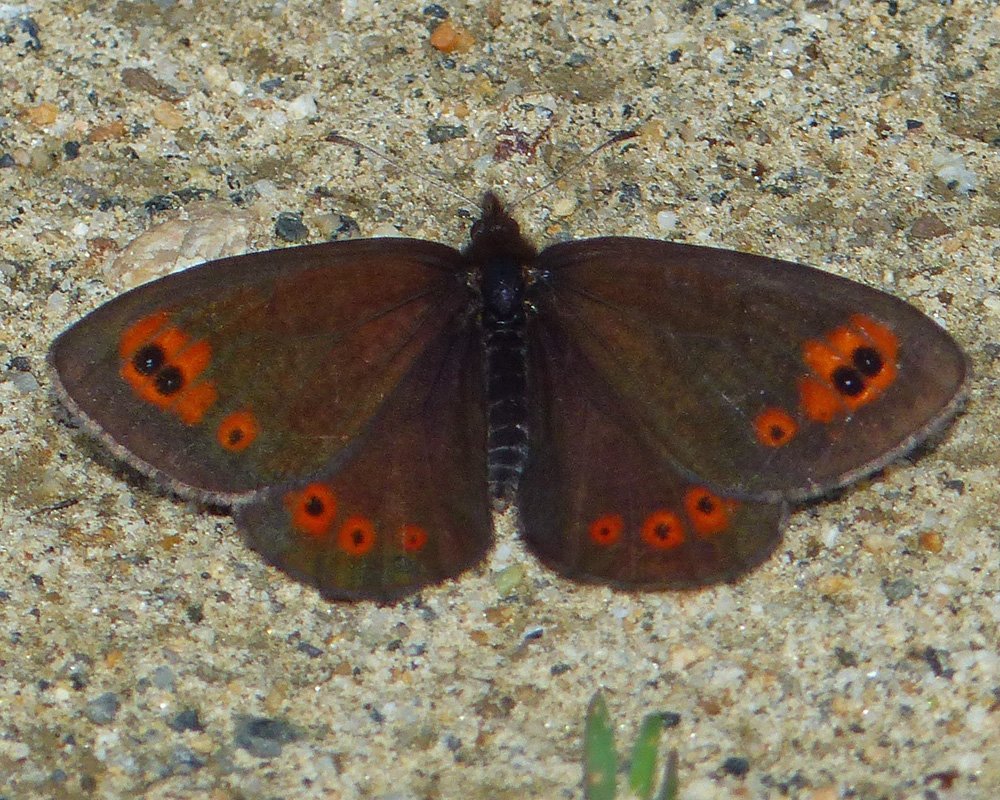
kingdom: Animalia
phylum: Arthropoda
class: Insecta
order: Lepidoptera
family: Nymphalidae
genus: Erebia
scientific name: Erebia epipsodea
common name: Common Alpine
